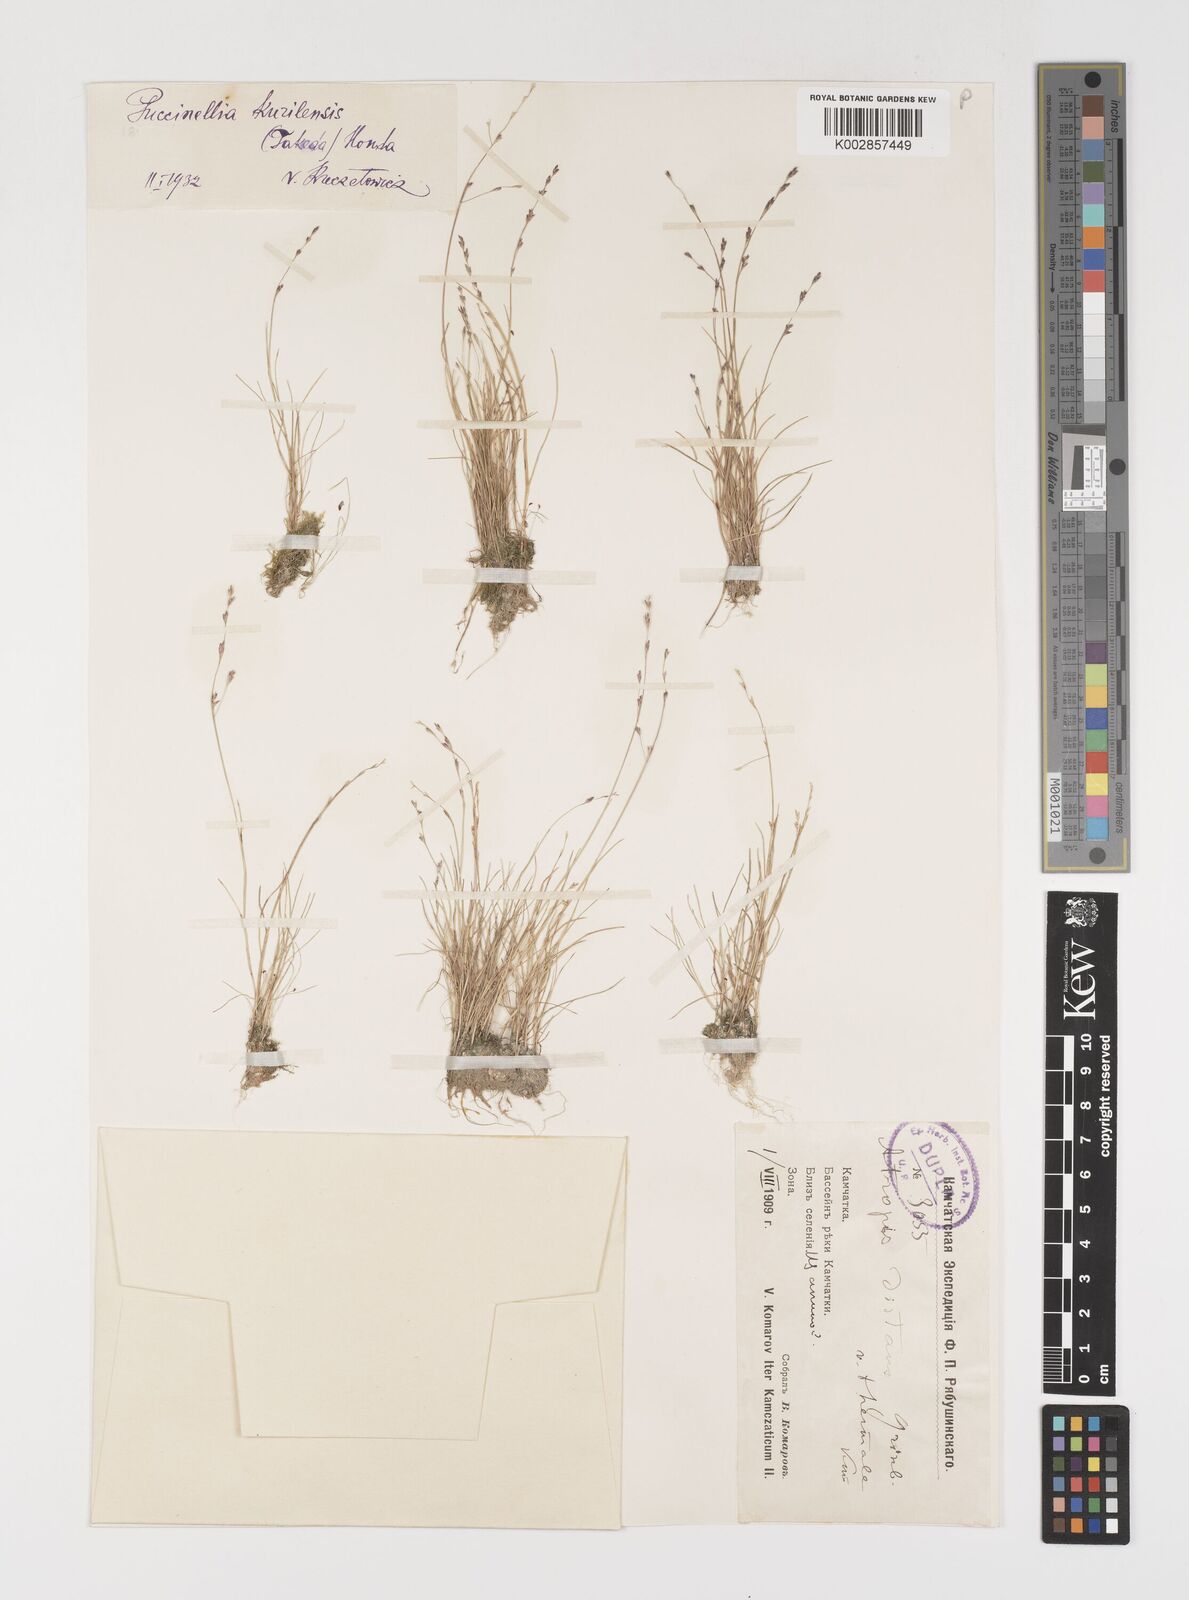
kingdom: Plantae
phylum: Tracheophyta
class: Liliopsida
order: Poales
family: Poaceae
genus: Puccinellia
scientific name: Puccinellia
